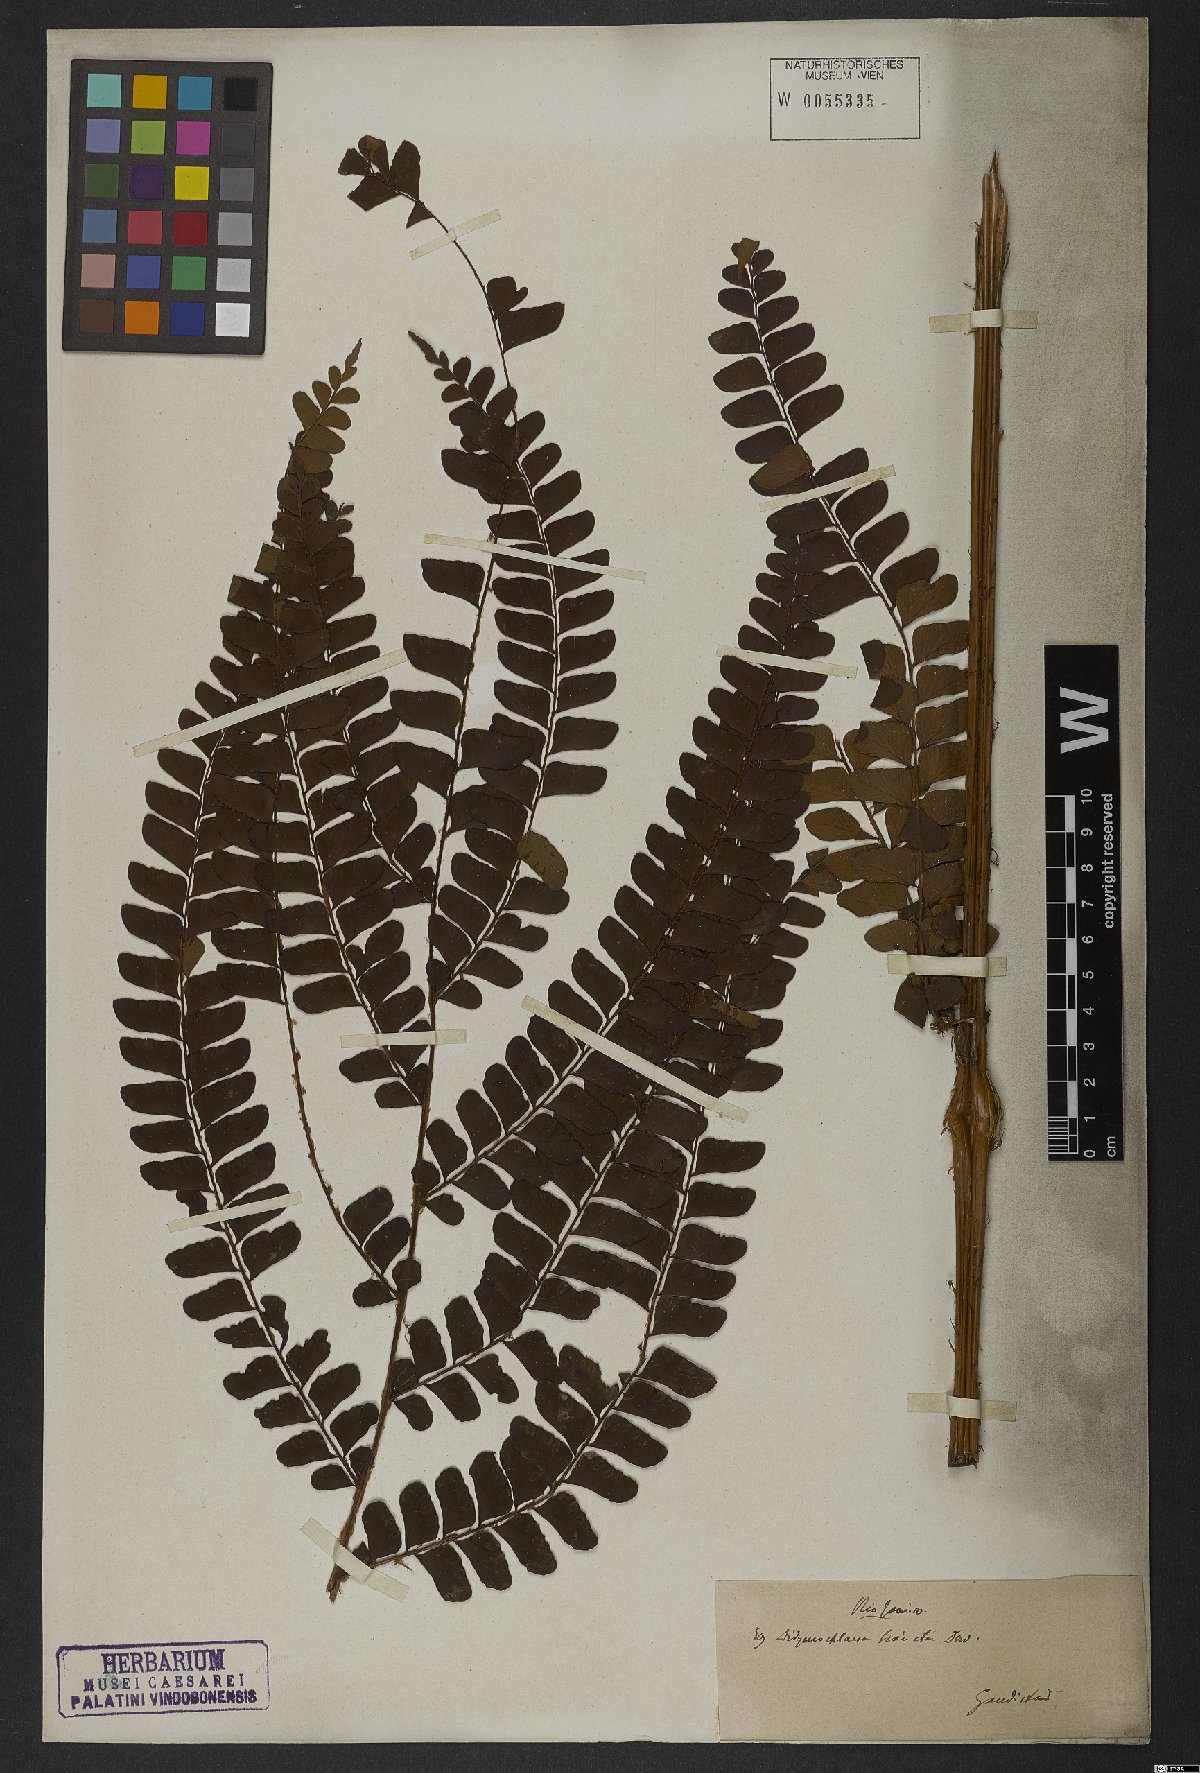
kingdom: Plantae
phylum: Tracheophyta
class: Polypodiopsida
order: Polypodiales
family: Didymochlaenaceae
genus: Didymochlaena
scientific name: Didymochlaena truncatula
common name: Mahogany fern
